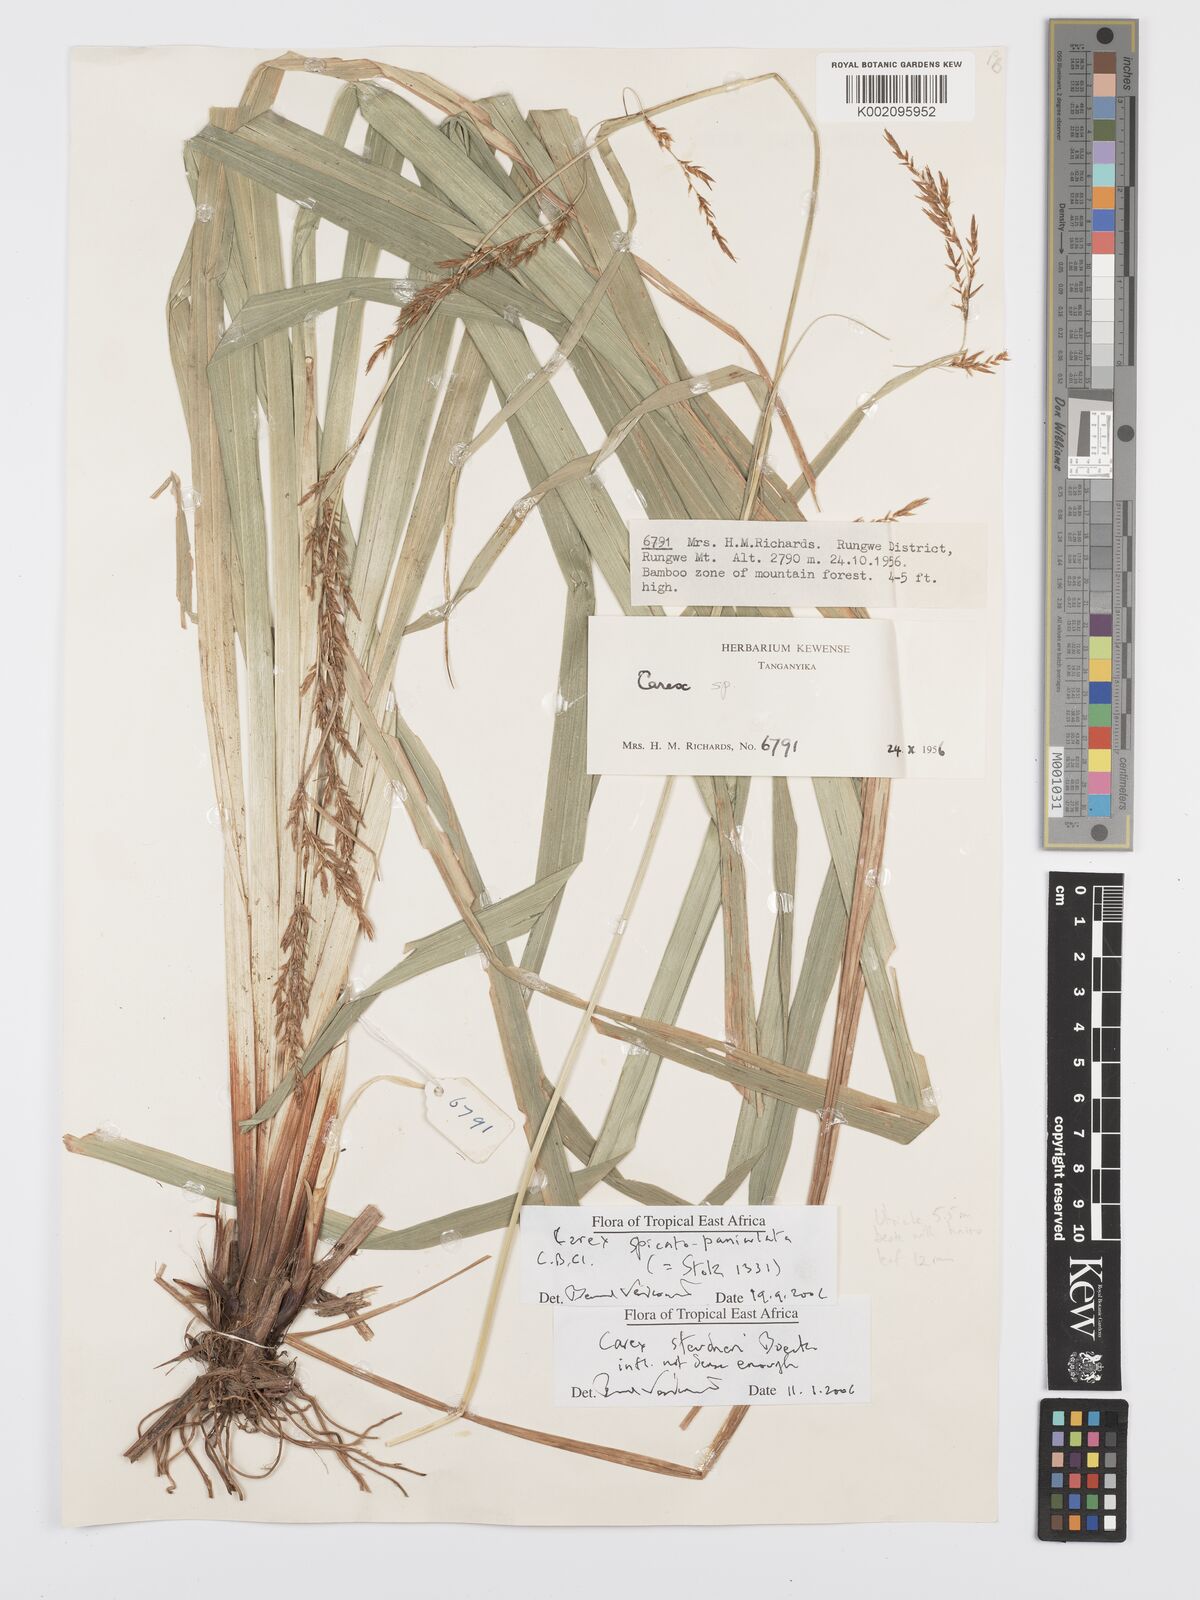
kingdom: Plantae
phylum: Tracheophyta
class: Liliopsida
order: Poales
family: Cyperaceae
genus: Carex
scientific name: Carex spicatopaniculata
